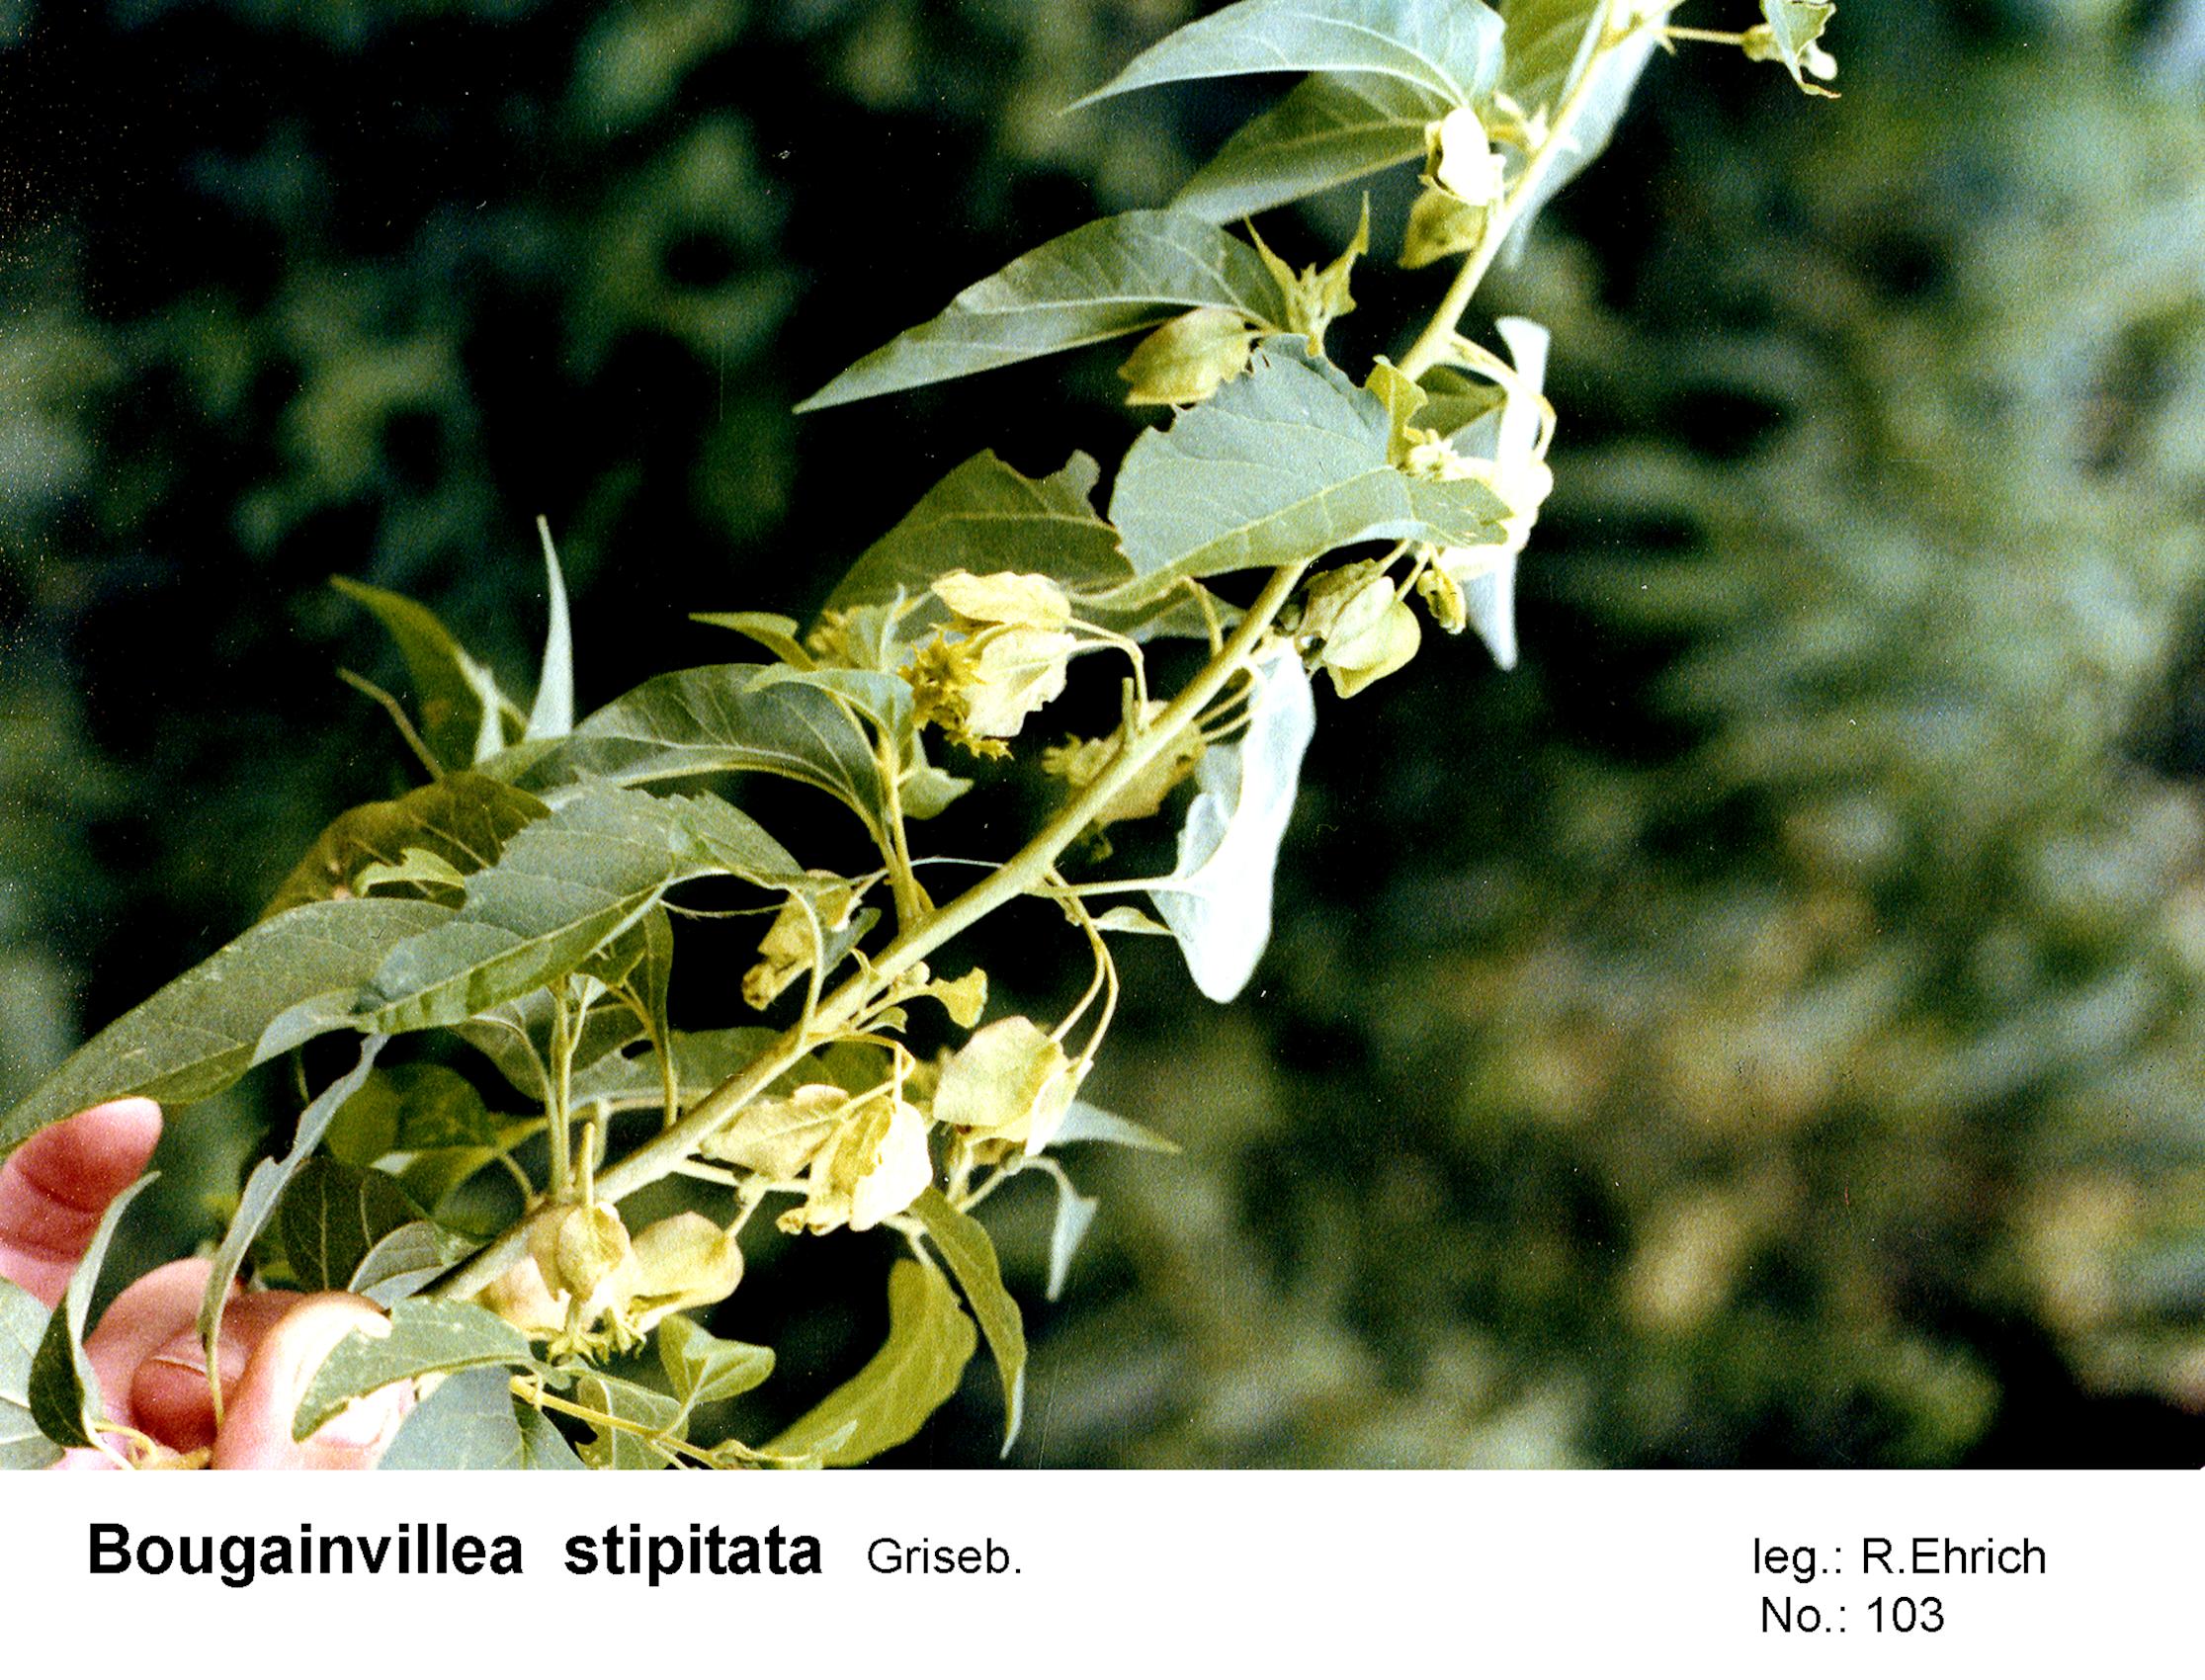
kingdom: Plantae
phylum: Tracheophyta
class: Magnoliopsida
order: Caryophyllales
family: Nyctaginaceae
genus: Bougainvillea
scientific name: Bougainvillea stipitata
